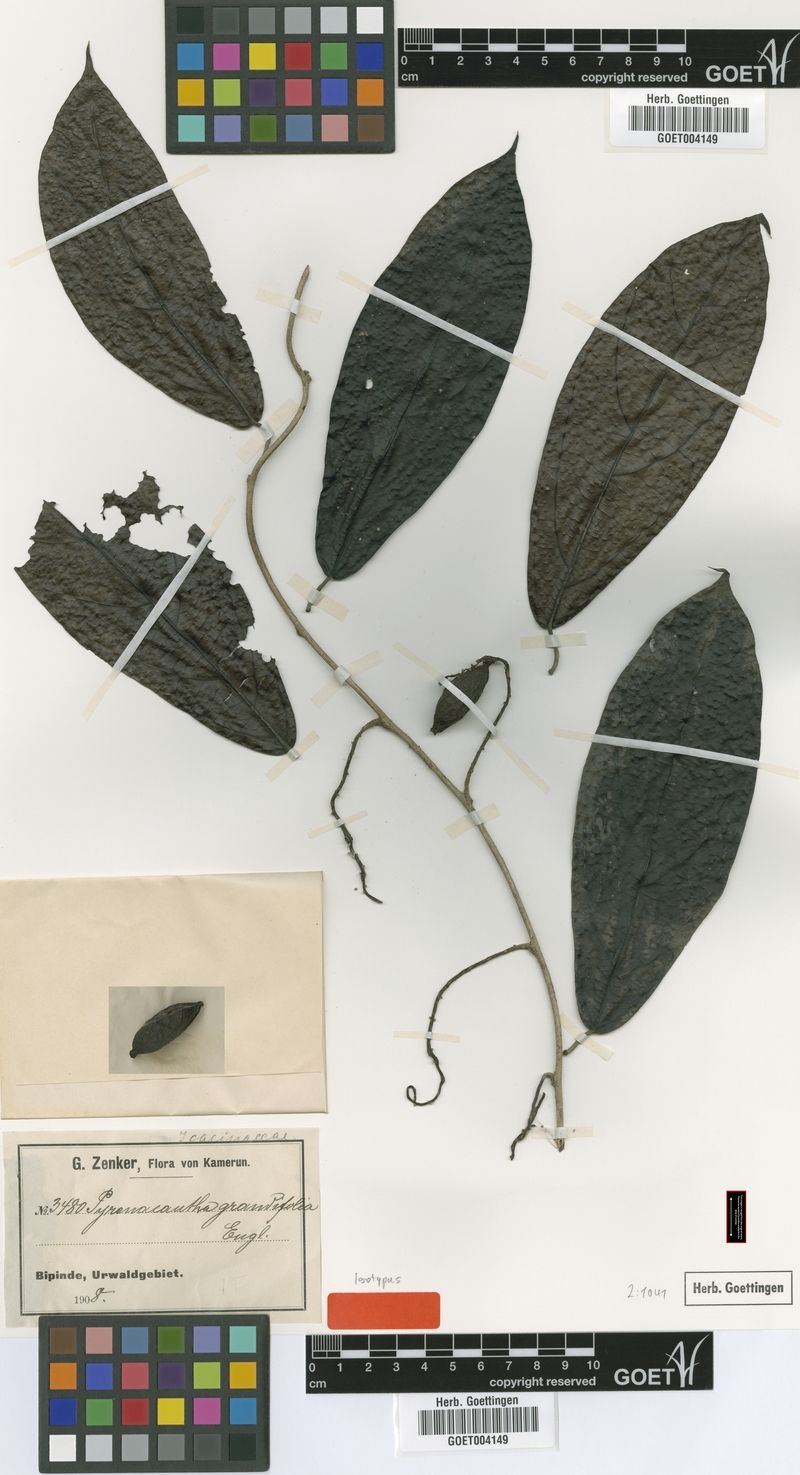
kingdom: Plantae
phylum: Tracheophyta
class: Magnoliopsida
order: Icacinales
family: Icacinaceae
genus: Pyrenacantha
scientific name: Pyrenacantha grandifolia
